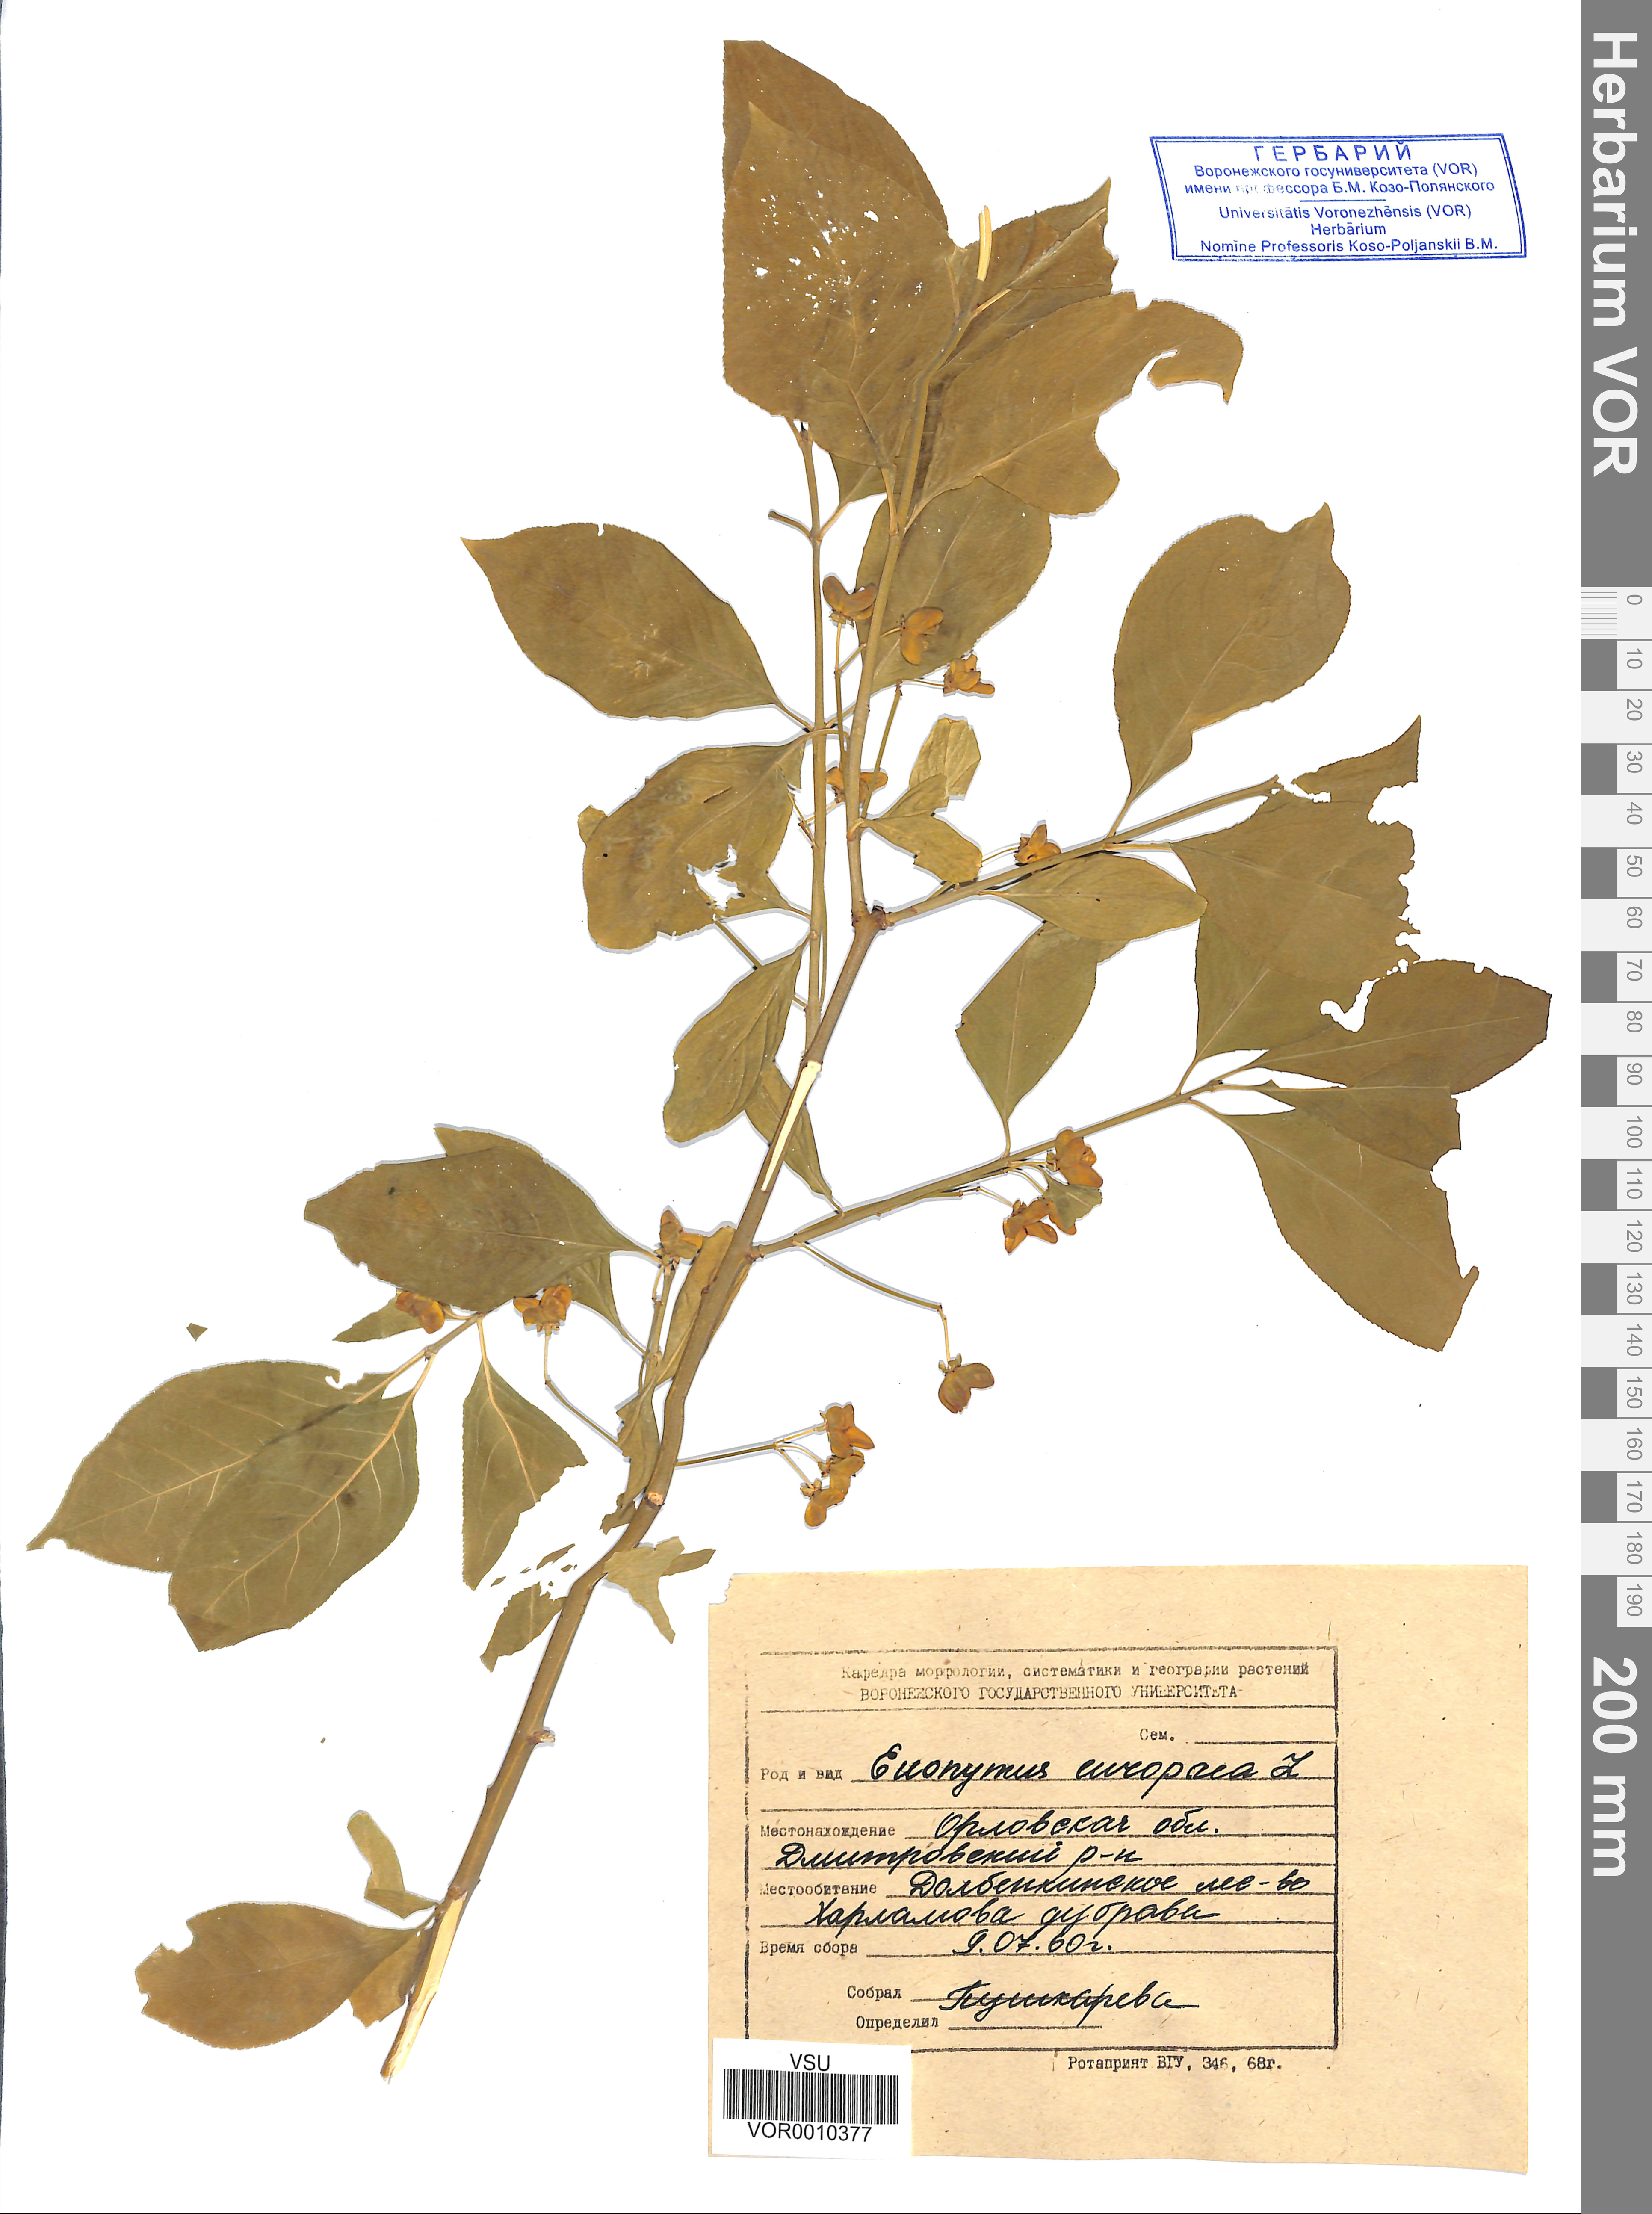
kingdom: Plantae
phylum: Tracheophyta
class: Magnoliopsida
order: Celastrales
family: Celastraceae
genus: Euonymus
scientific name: Euonymus europaeus
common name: Spindle
